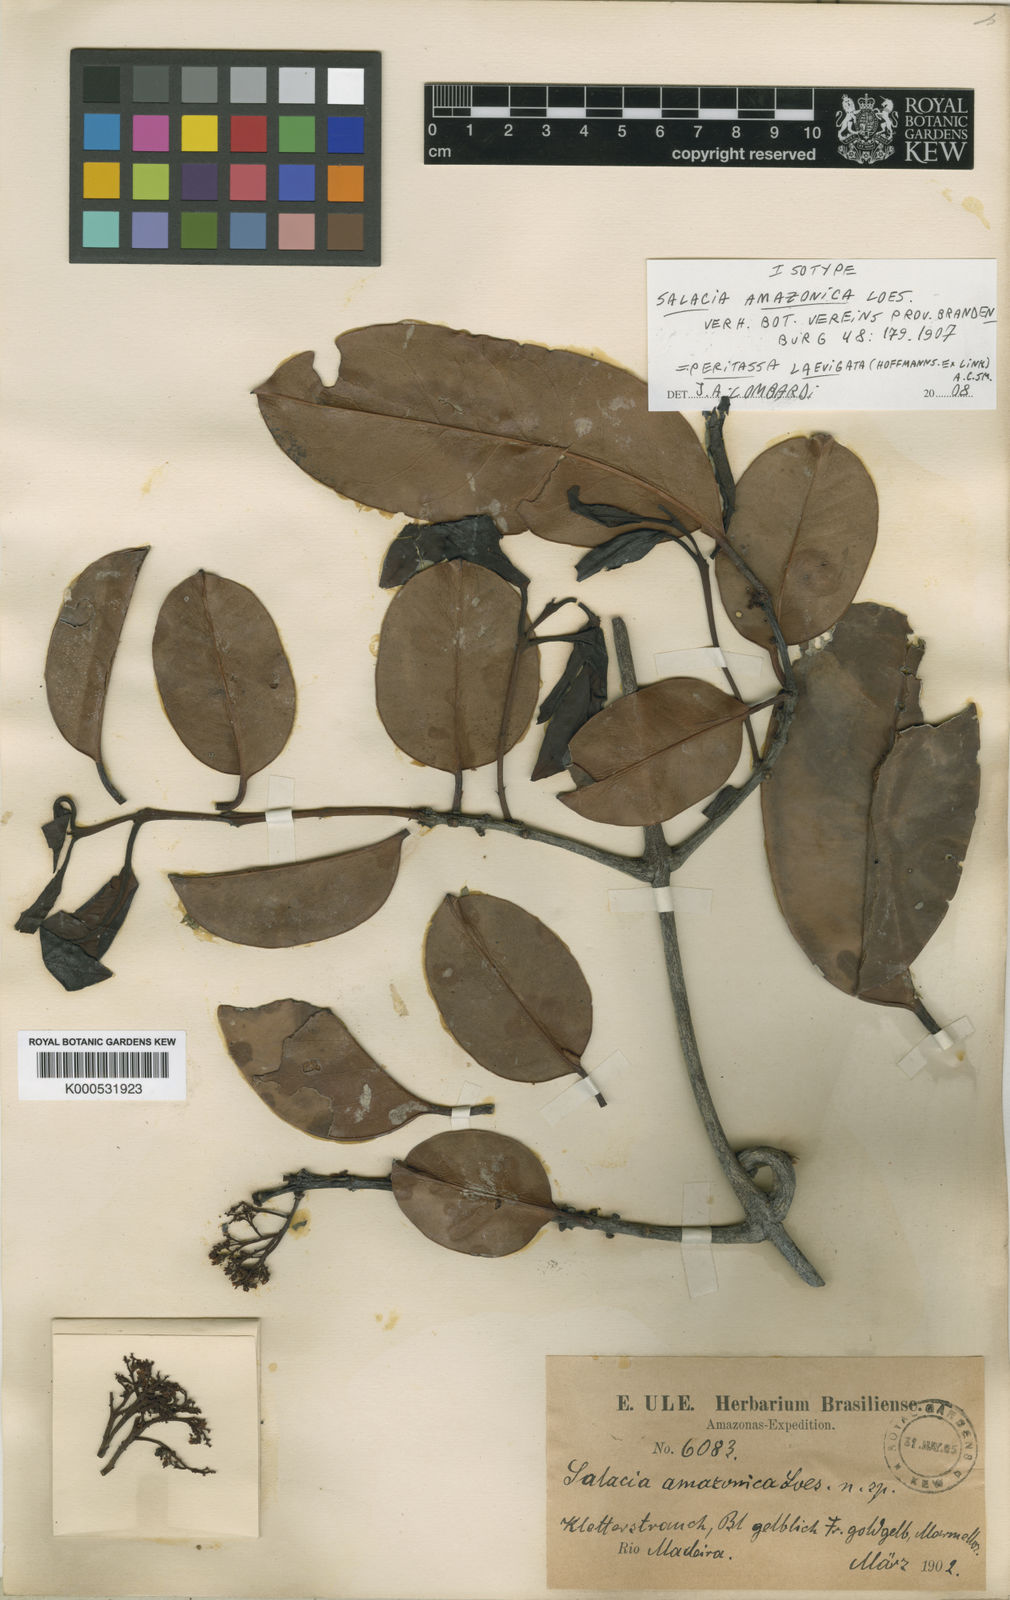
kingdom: Plantae
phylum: Tracheophyta
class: Magnoliopsida
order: Celastrales
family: Celastraceae
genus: Peritassa
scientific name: Peritassa laevigata
